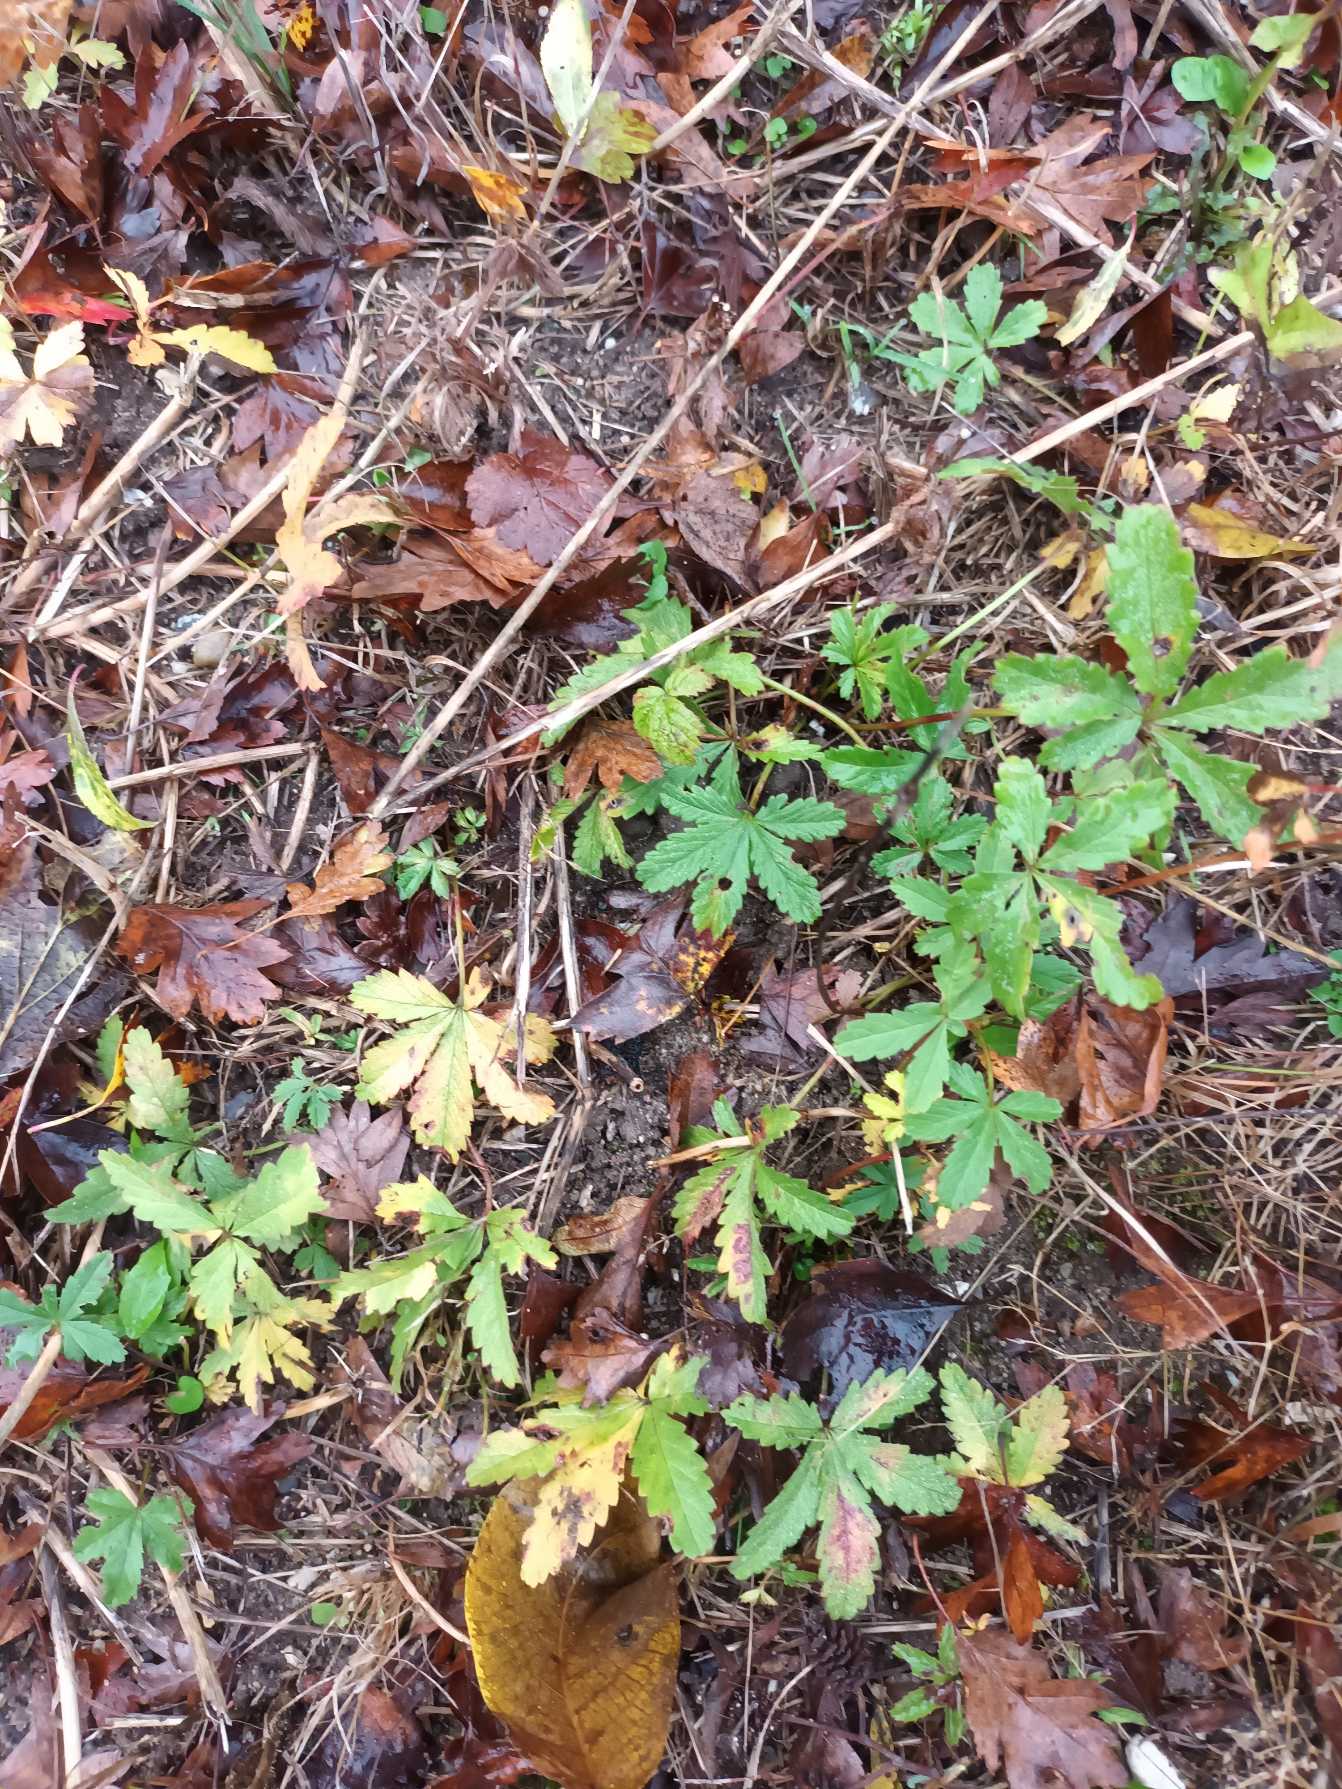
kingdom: Plantae
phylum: Tracheophyta
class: Magnoliopsida
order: Rosales
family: Rosaceae
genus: Potentilla
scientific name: Potentilla reptans
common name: Krybende potentil
